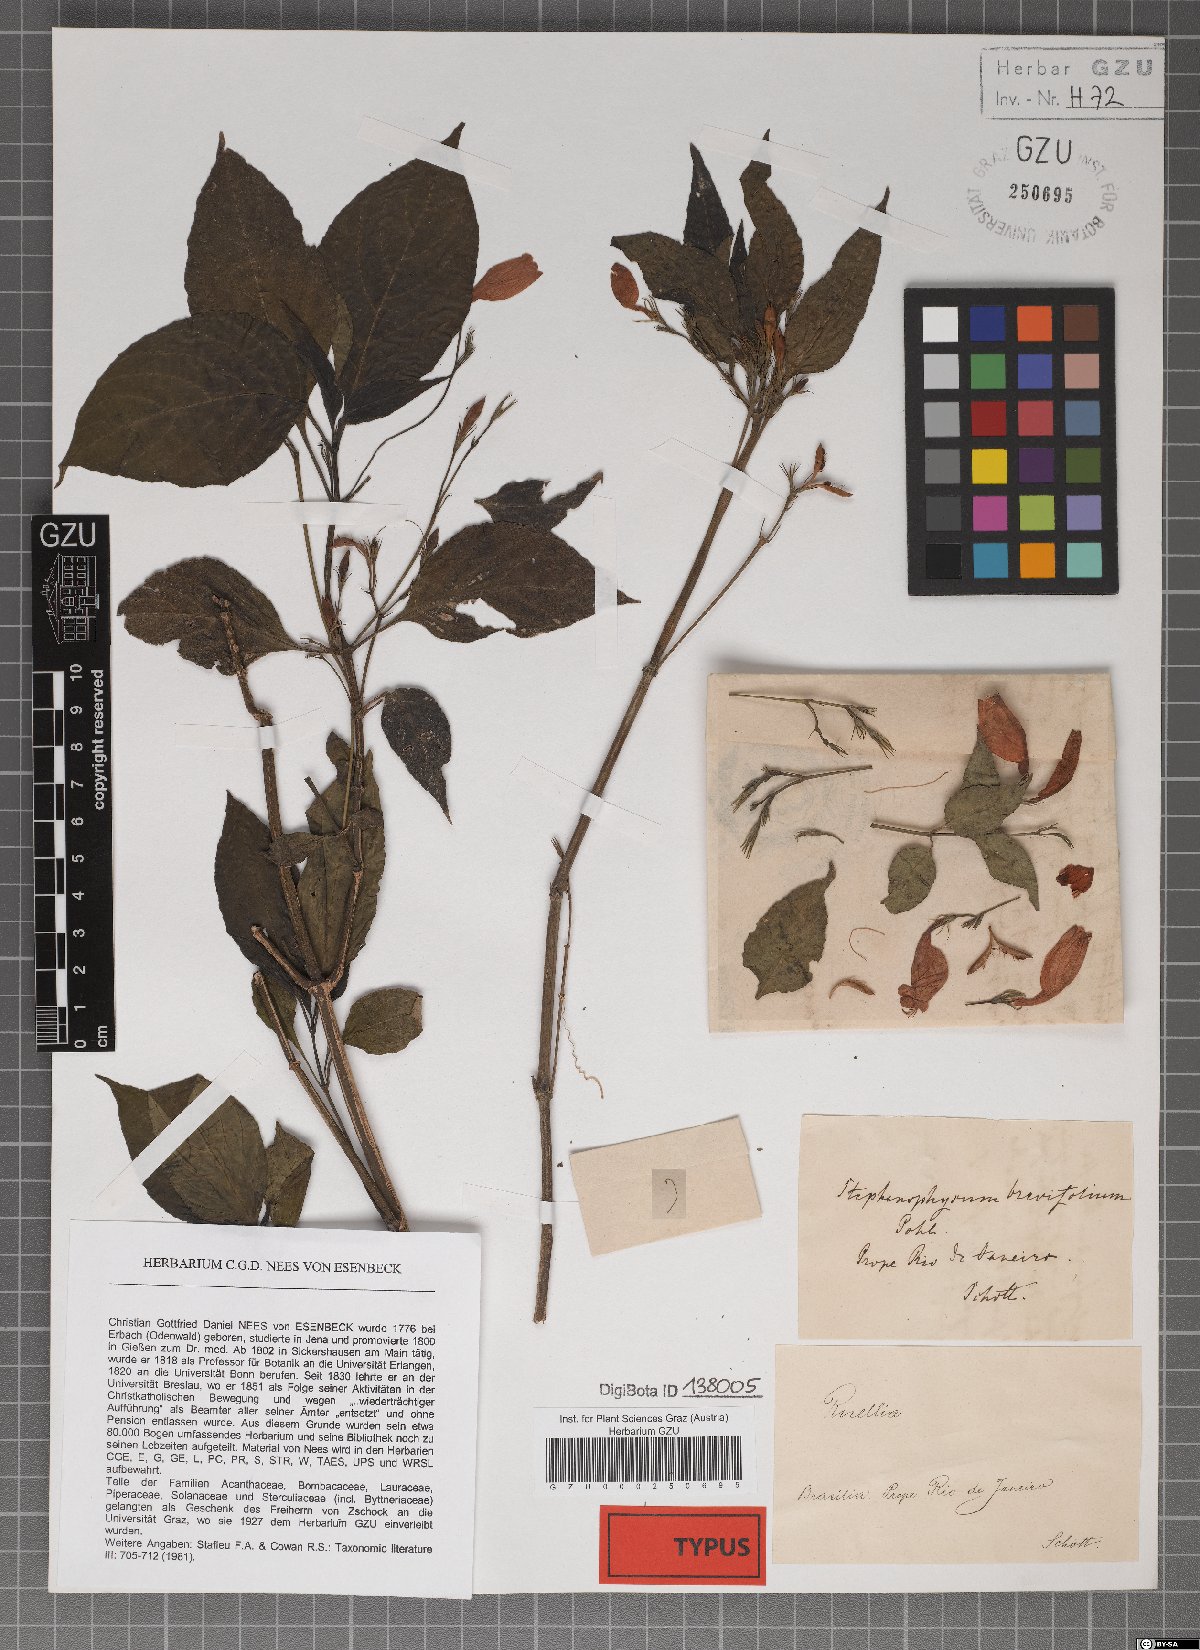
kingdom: Plantae
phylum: Tracheophyta
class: Magnoliopsida
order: Lamiales
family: Acanthaceae
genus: Ruellia
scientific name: Ruellia brevifolia
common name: Tropical wild petunia
